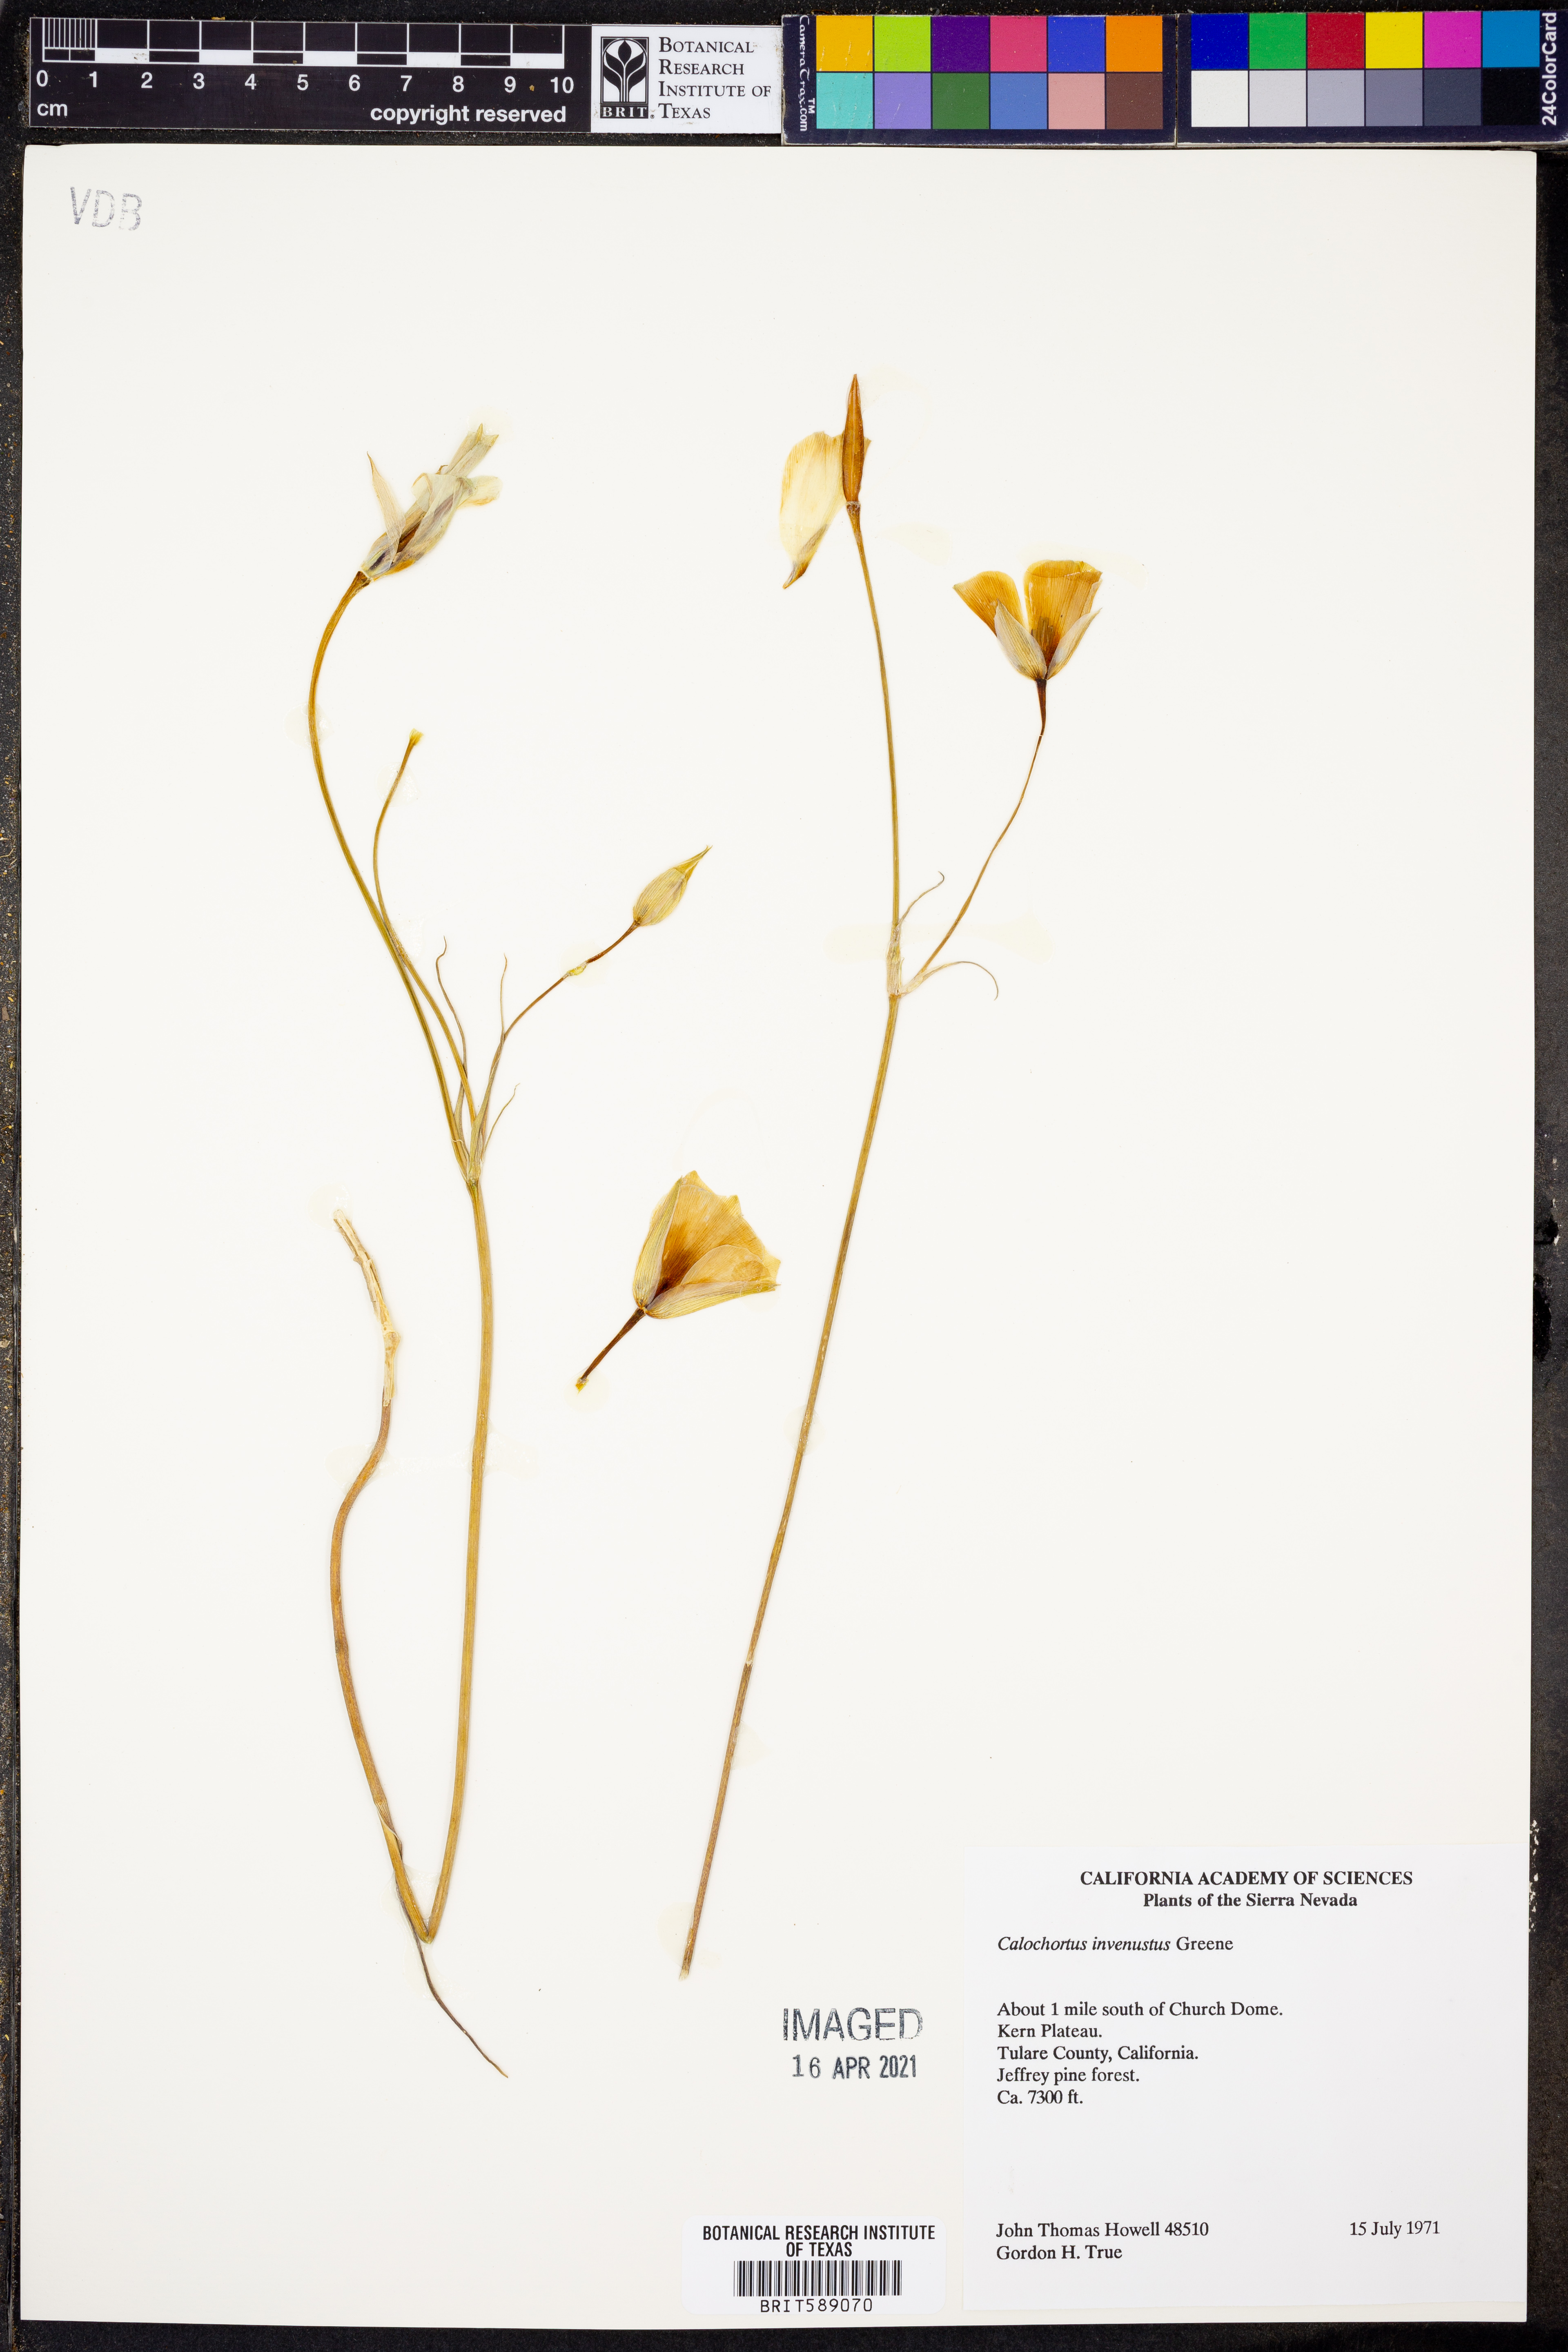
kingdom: Plantae
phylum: Tracheophyta
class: Liliopsida
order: Liliales
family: Liliaceae
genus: Calochortus
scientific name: Calochortus invenustus
